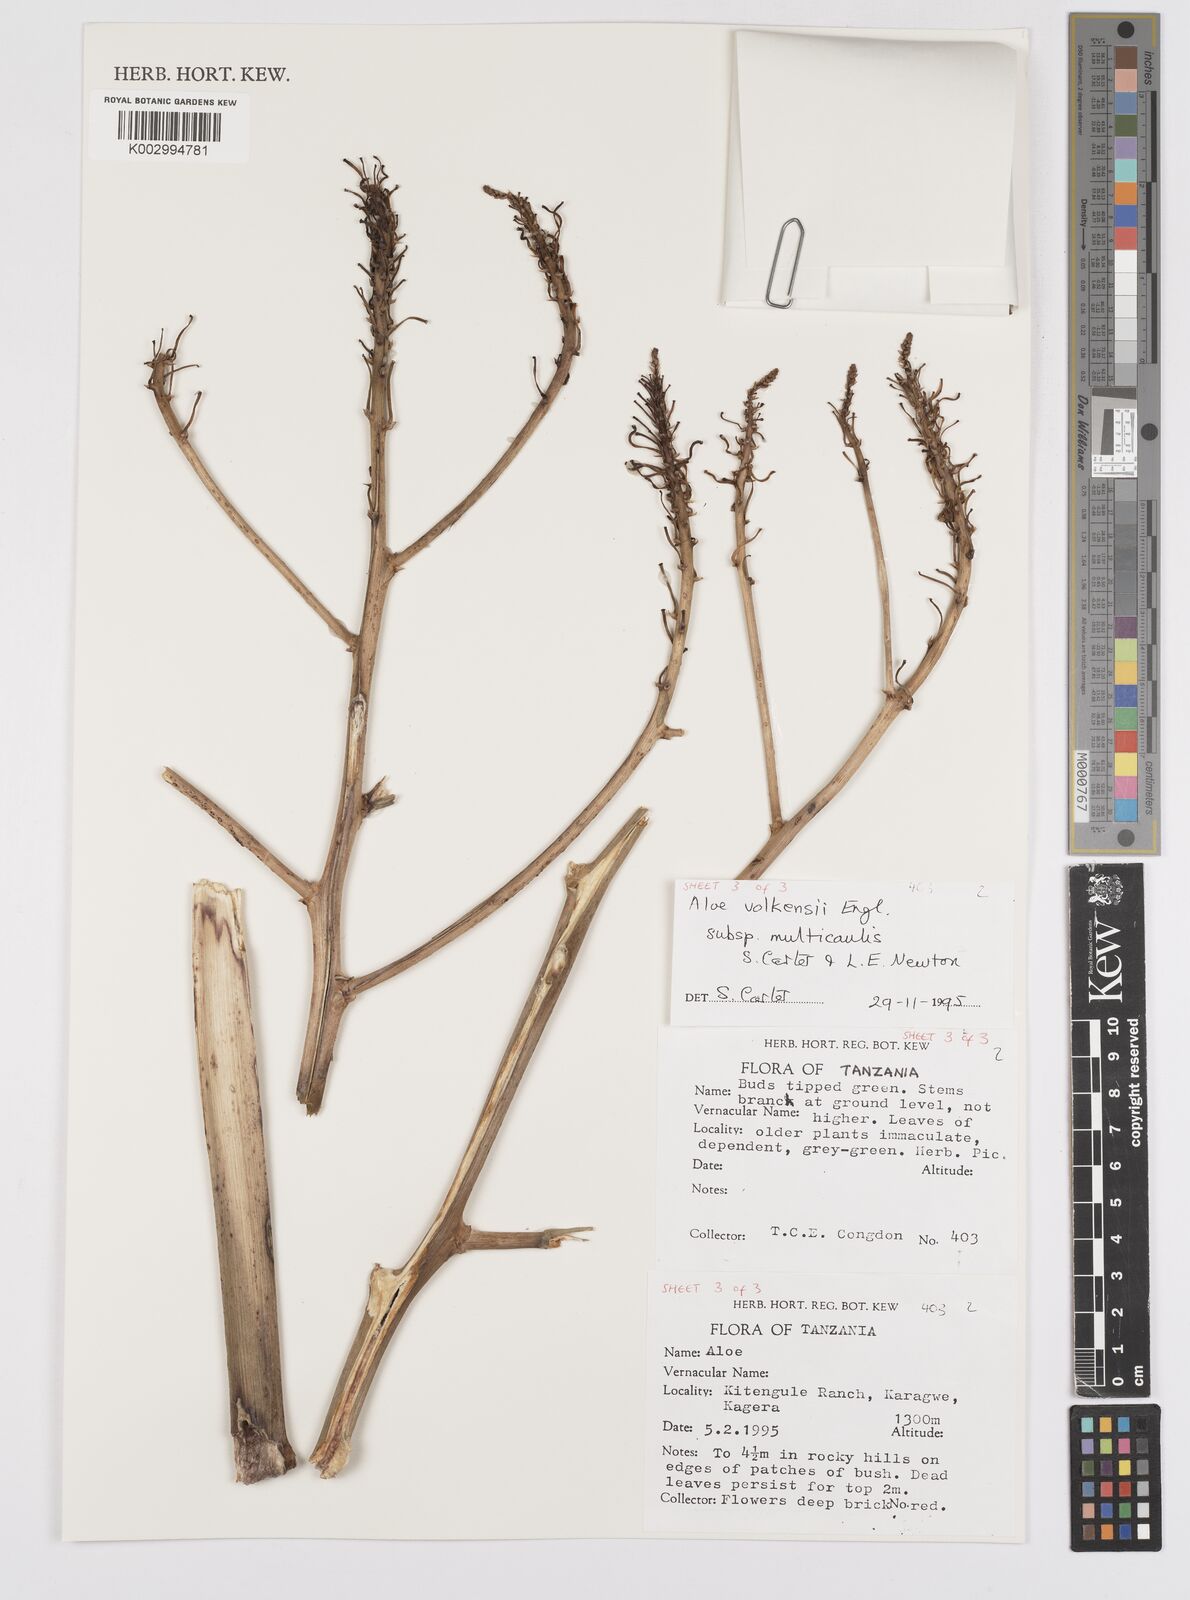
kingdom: Plantae
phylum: Tracheophyta
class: Liliopsida
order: Asparagales
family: Asphodelaceae
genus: Aloe
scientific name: Aloe volkensii
